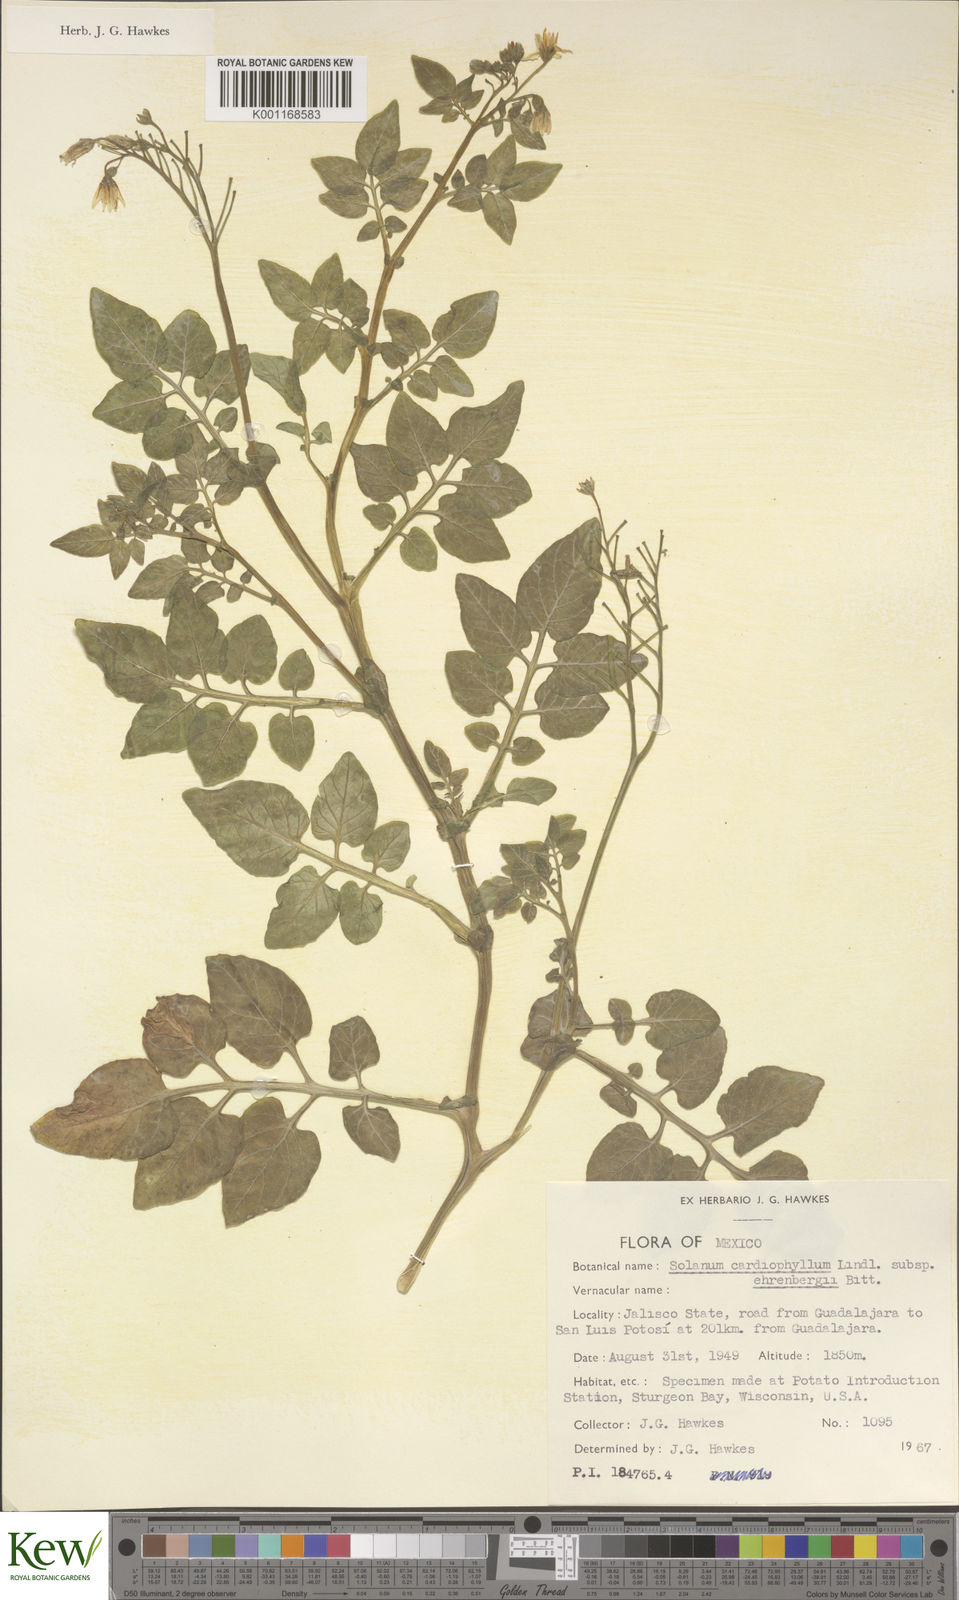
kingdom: Plantae
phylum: Tracheophyta
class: Magnoliopsida
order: Solanales
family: Solanaceae
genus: Solanum
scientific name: Solanum cardiophyllum
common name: Heartleaf horsenettle
